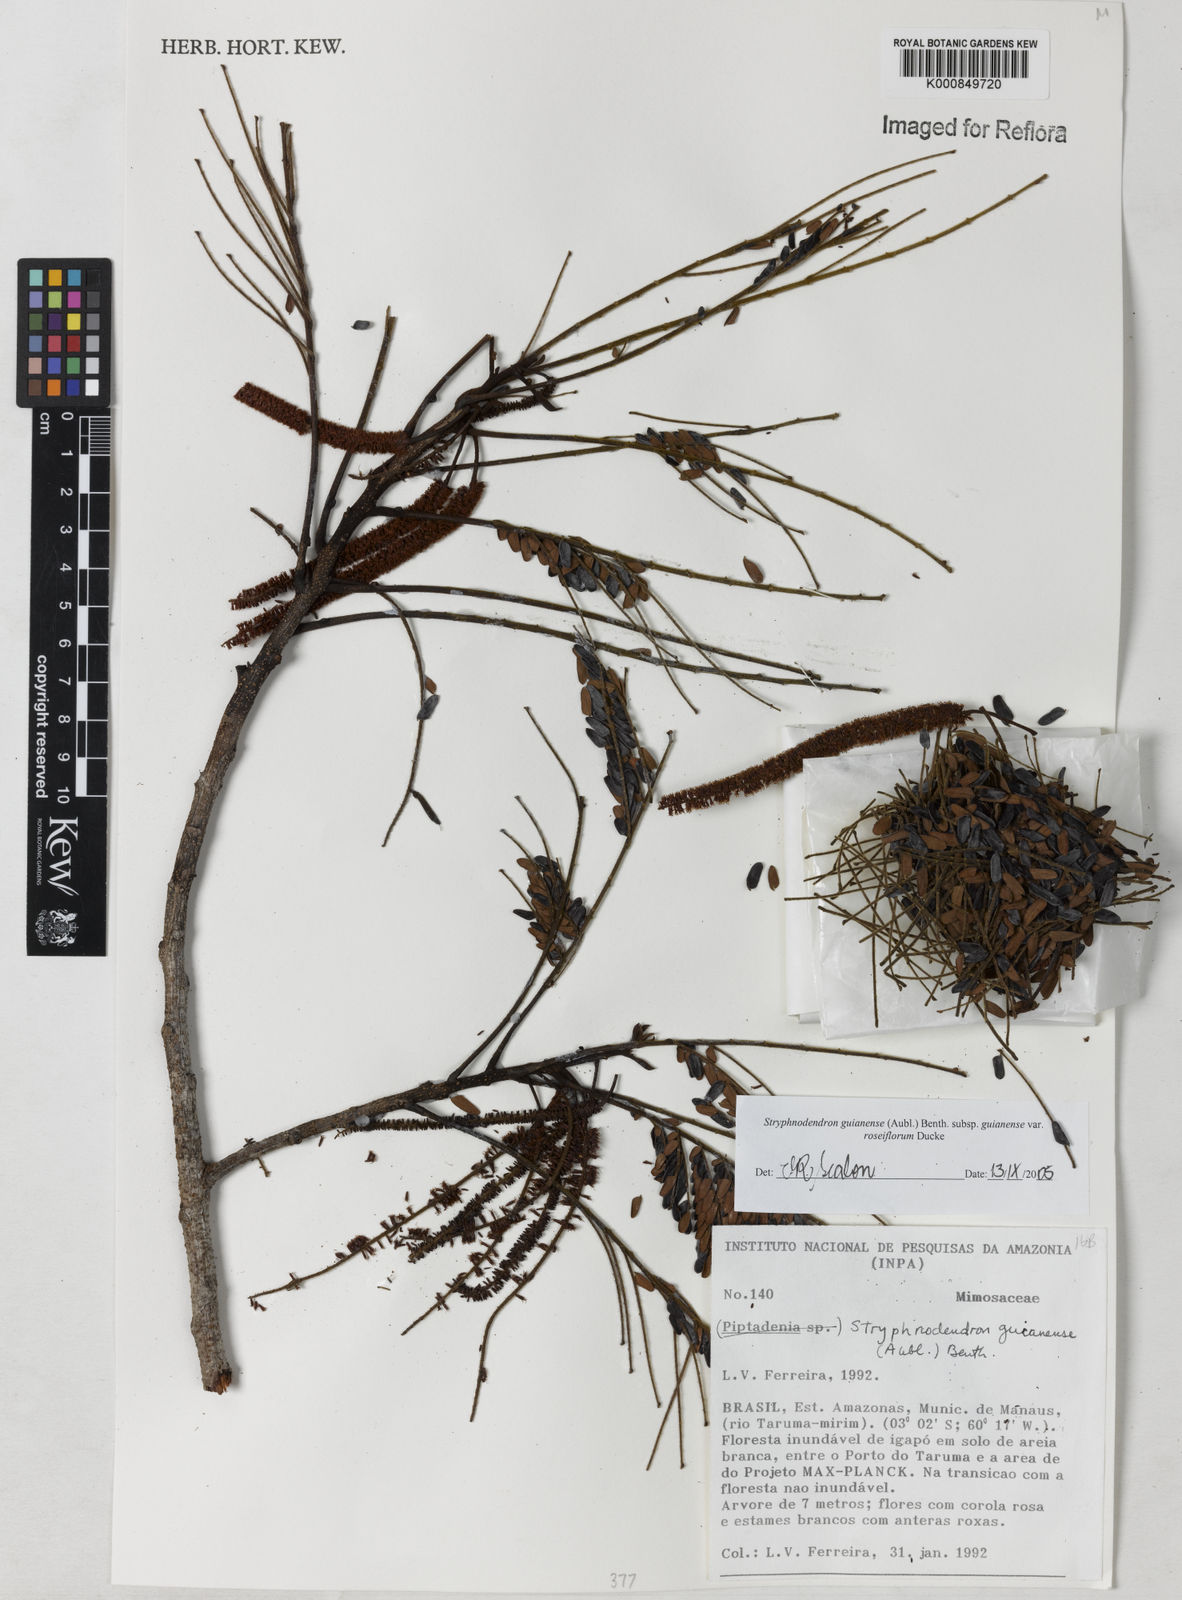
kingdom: Plantae
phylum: Tracheophyta
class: Magnoliopsida
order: Fabales
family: Fabaceae
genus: Stryphnodendron
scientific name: Stryphnodendron guianense
